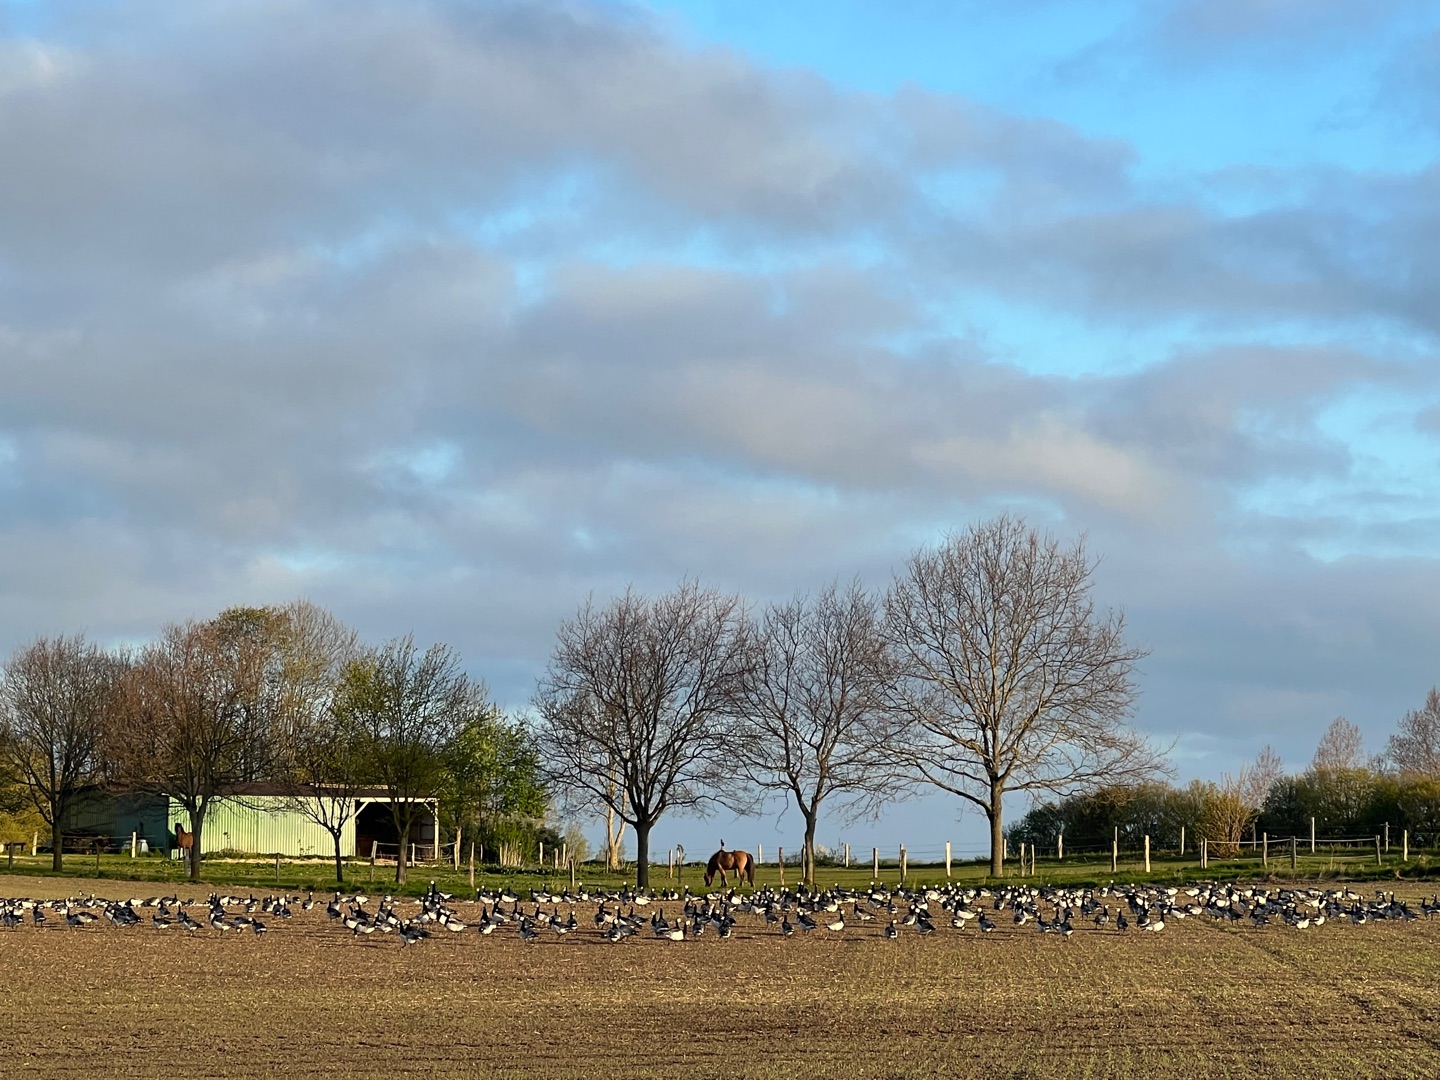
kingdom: Animalia
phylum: Chordata
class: Aves
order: Anseriformes
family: Anatidae
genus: Branta
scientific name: Branta leucopsis
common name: Bramgås
